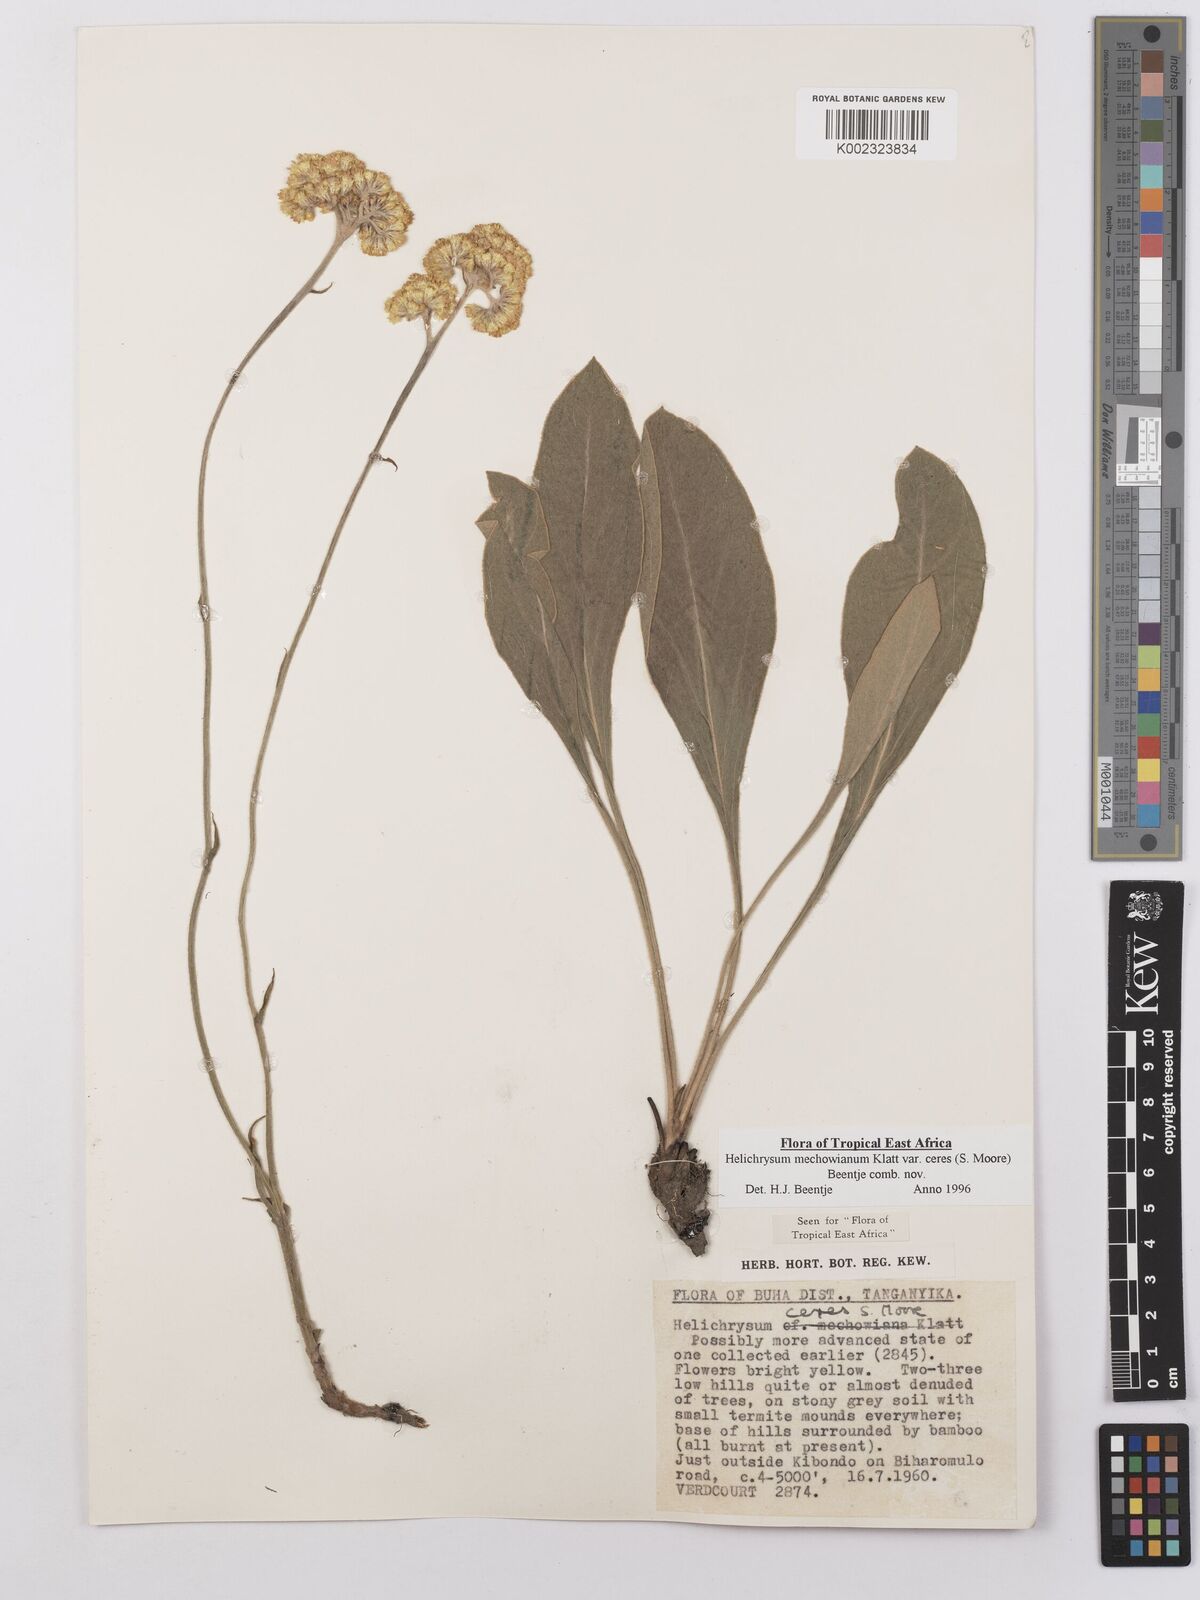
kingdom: Plantae
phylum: Tracheophyta
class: Magnoliopsida
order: Asterales
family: Asteraceae
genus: Helichrysum
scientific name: Helichrysum mechowianum
